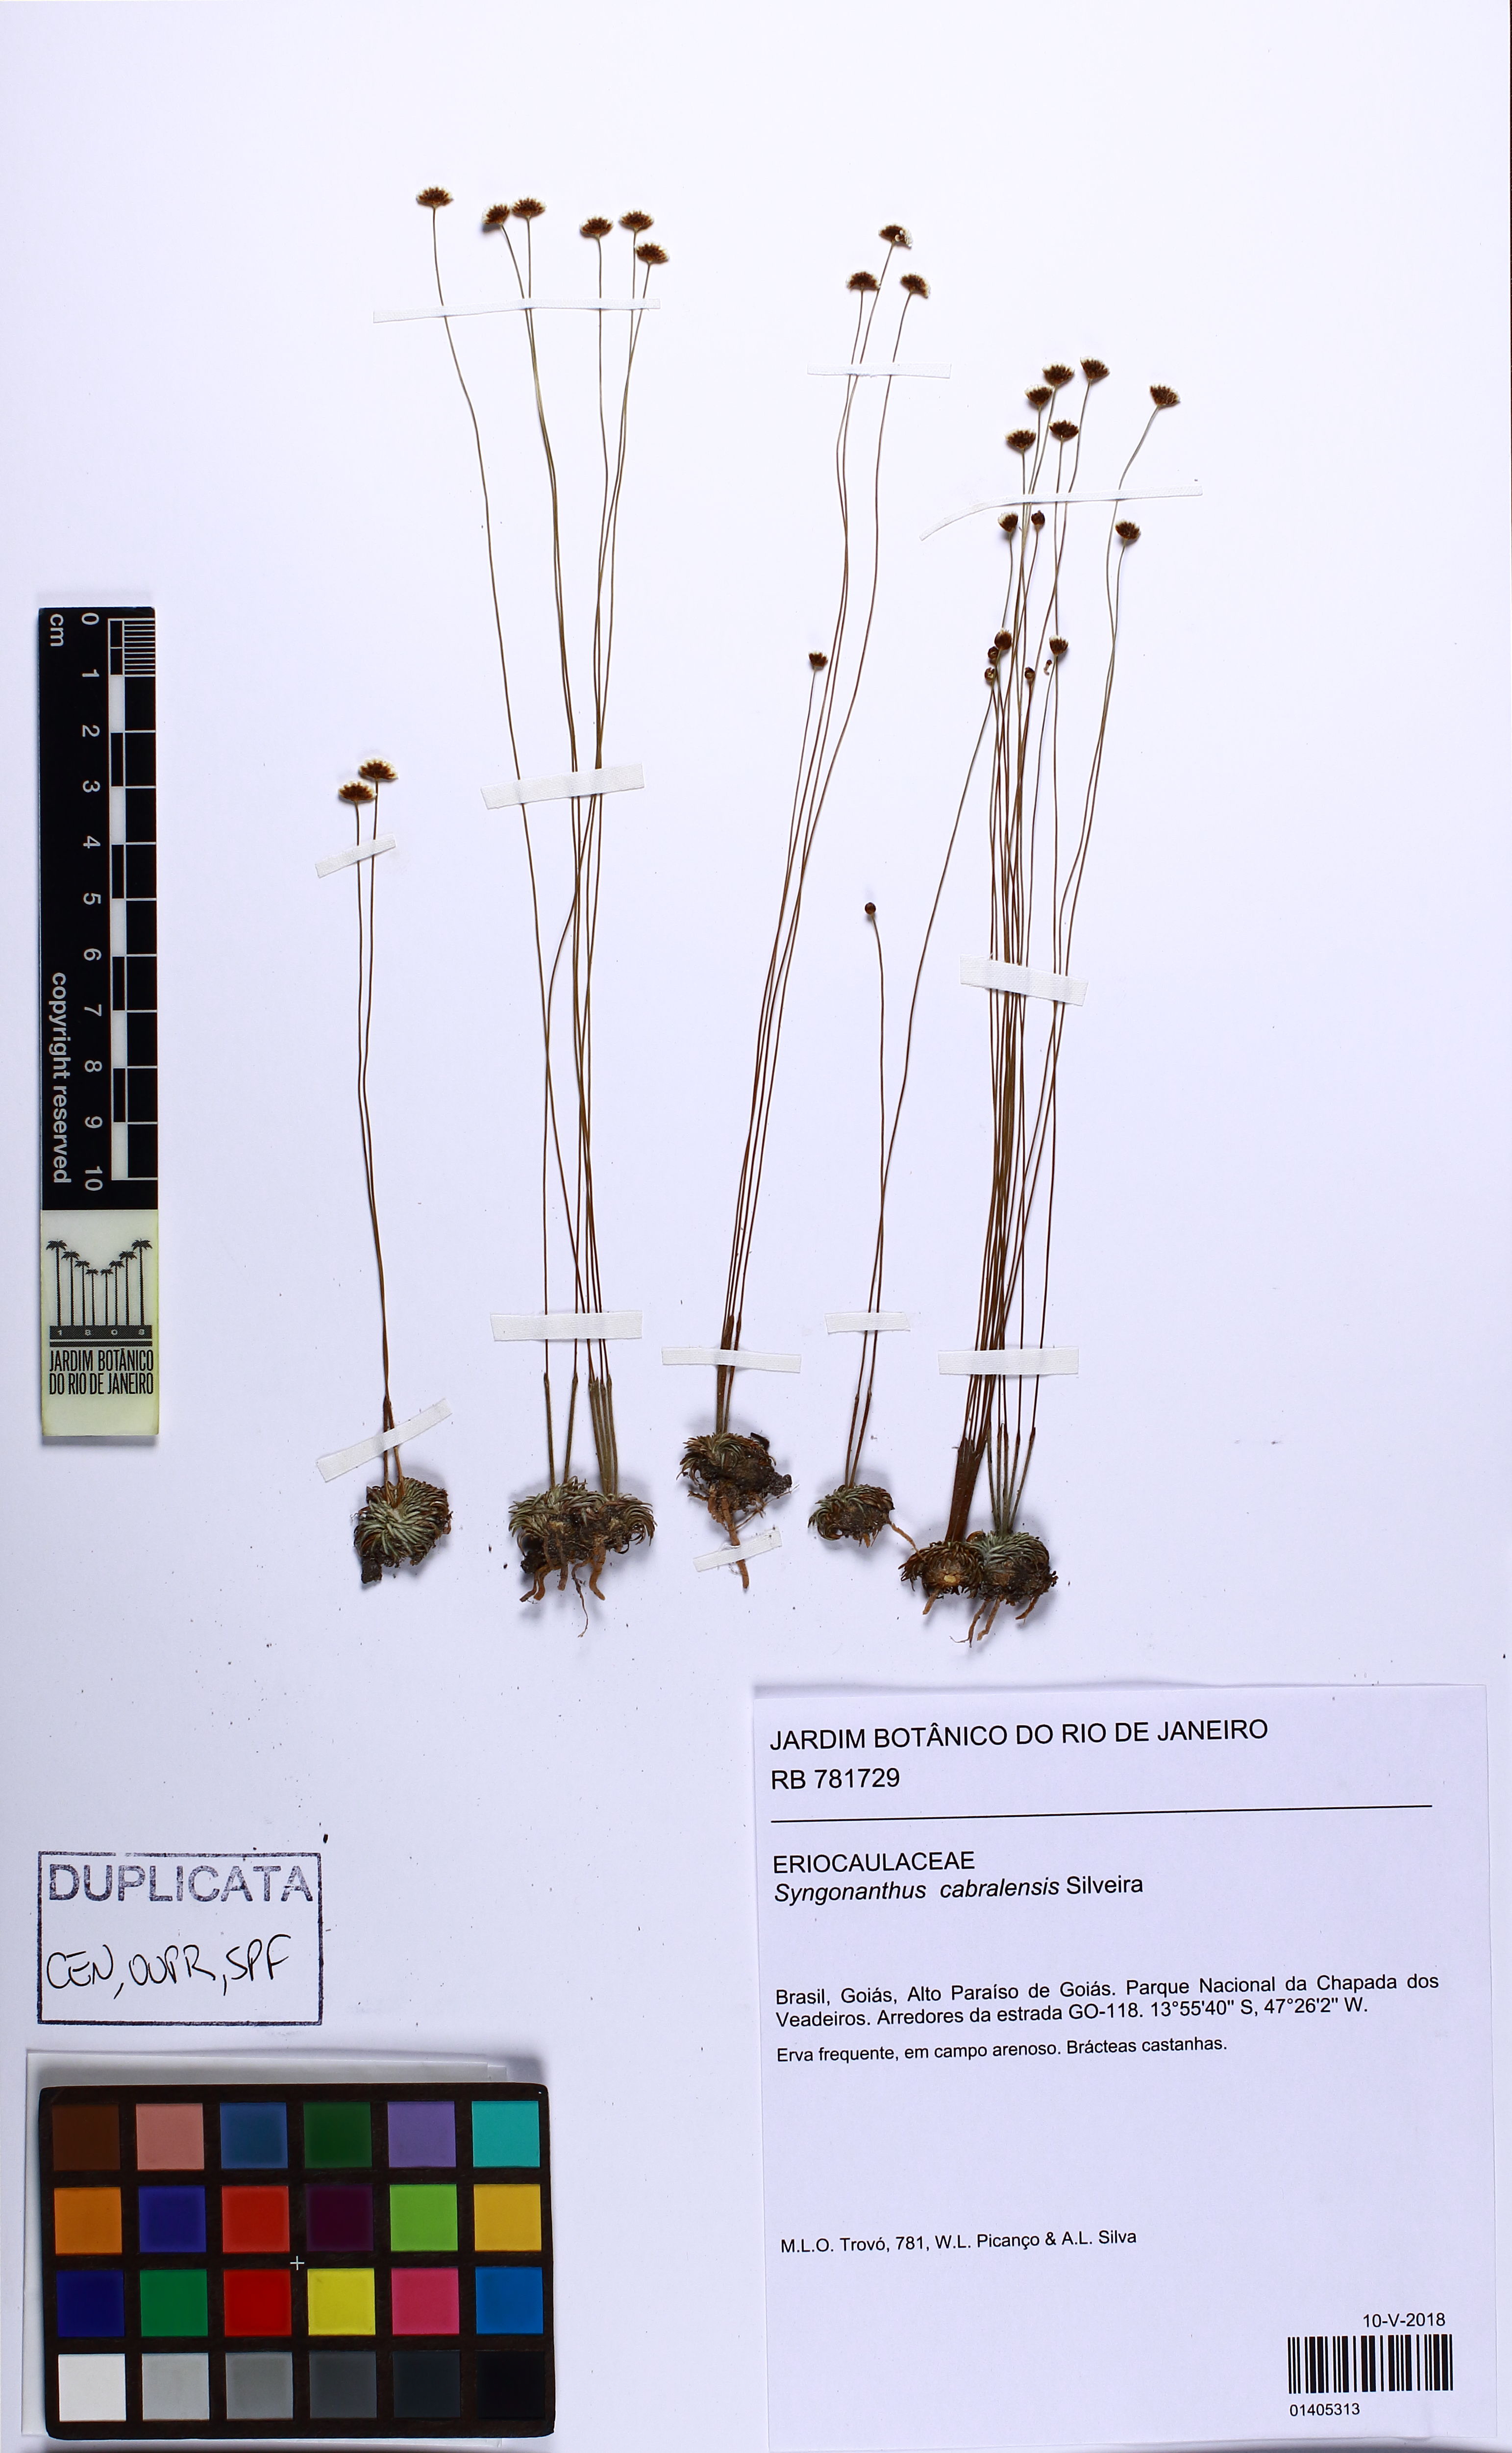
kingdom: Plantae
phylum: Tracheophyta
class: Liliopsida
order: Poales
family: Eriocaulaceae
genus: Syngonanthus
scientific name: Syngonanthus cabralensis
